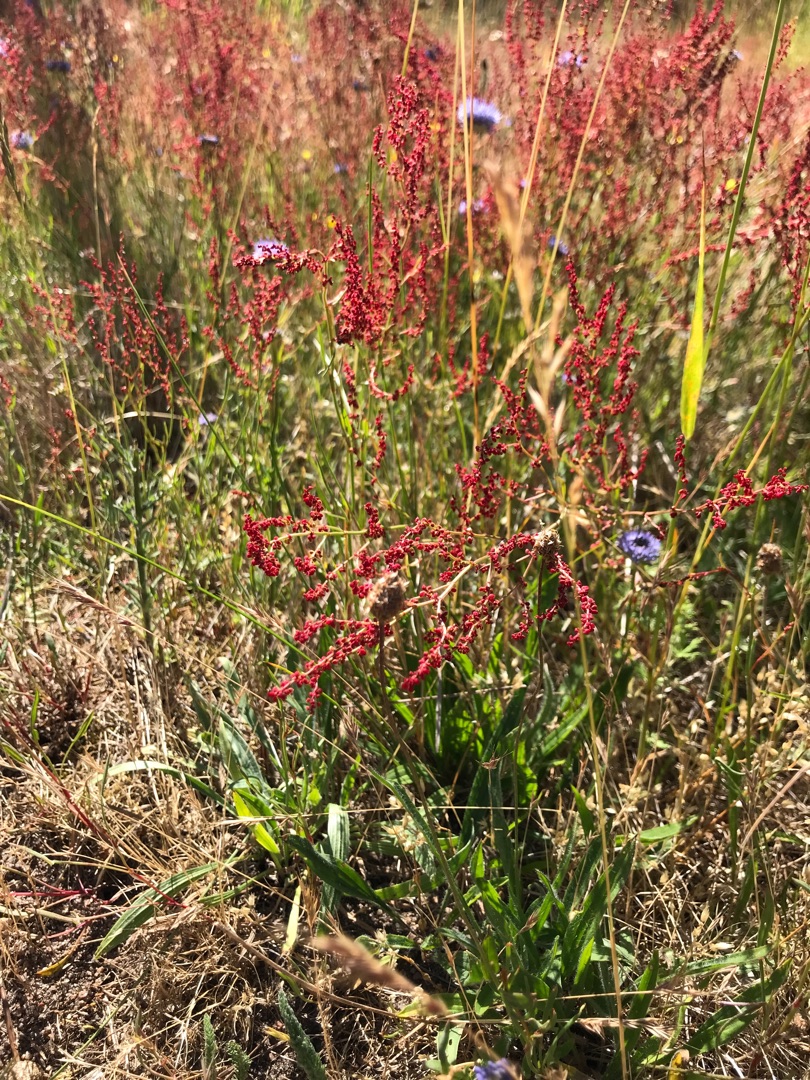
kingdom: Plantae
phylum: Tracheophyta
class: Magnoliopsida
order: Caryophyllales
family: Polygonaceae
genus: Rumex
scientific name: Rumex acetosella
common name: Rødknæ
